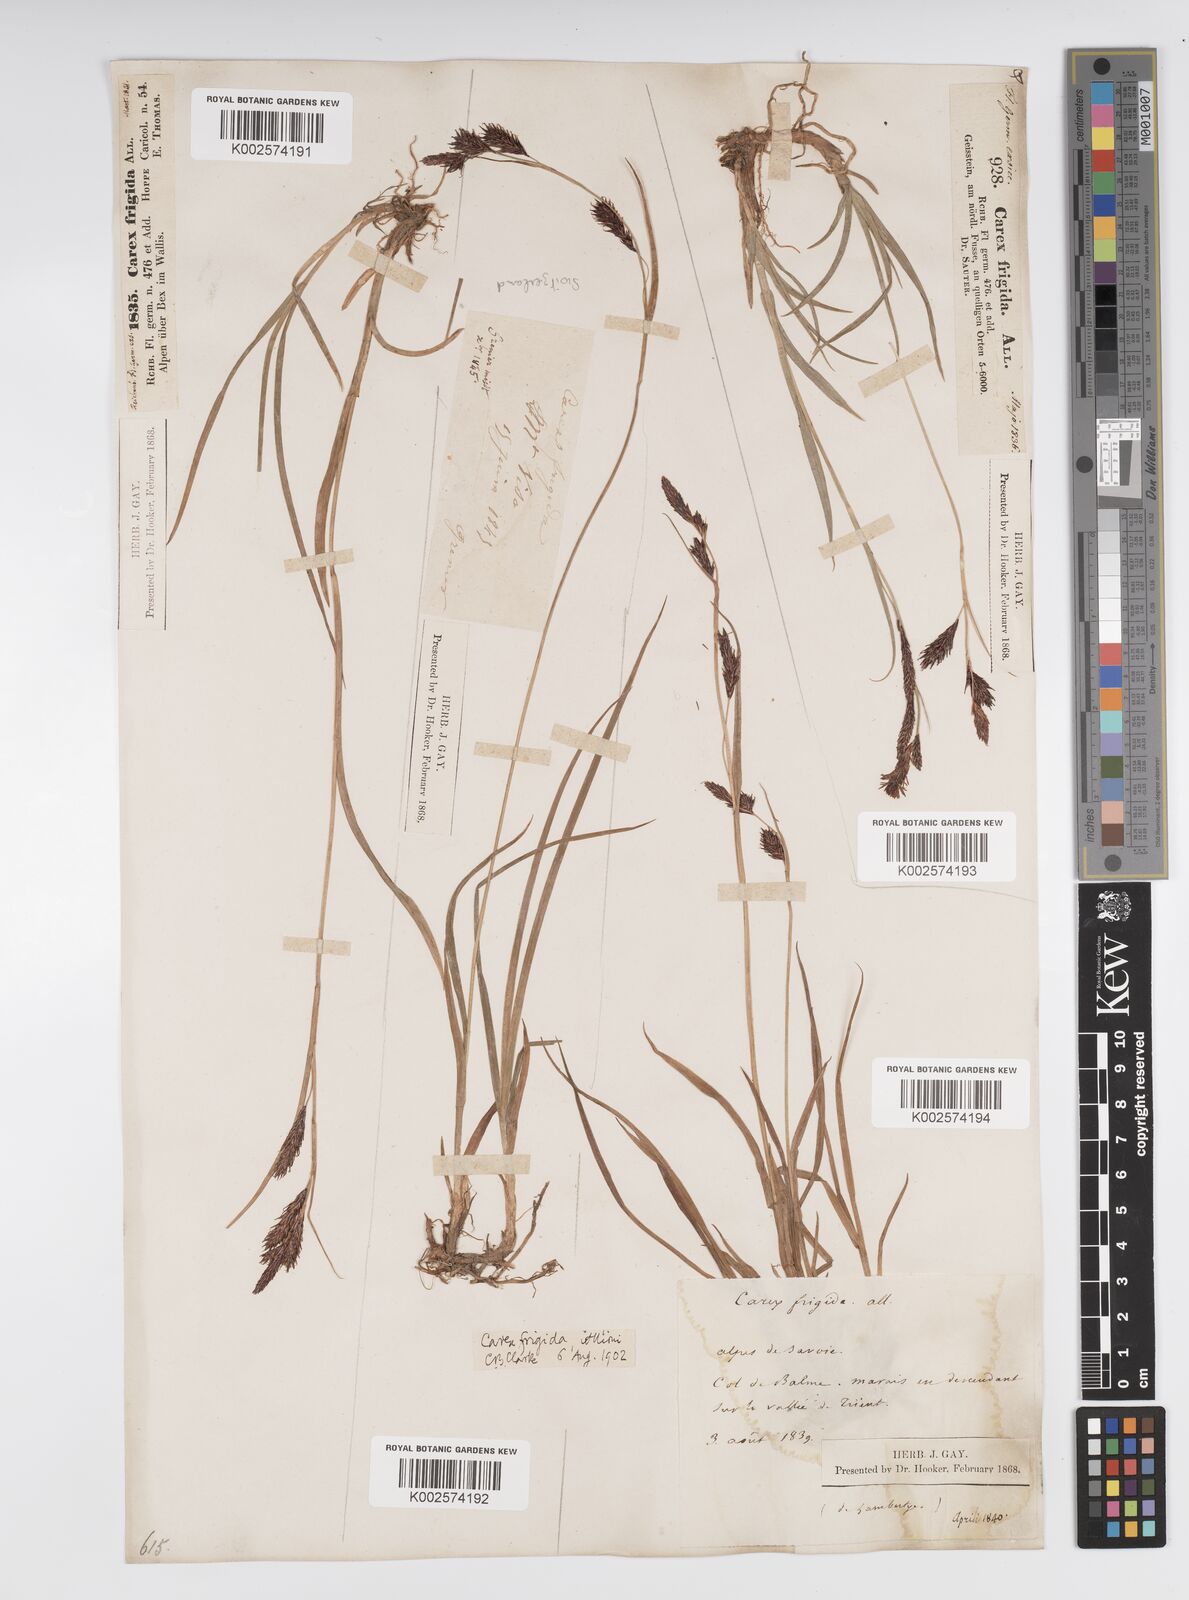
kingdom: Plantae
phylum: Tracheophyta
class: Liliopsida
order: Poales
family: Cyperaceae
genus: Carex
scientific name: Carex frigida
